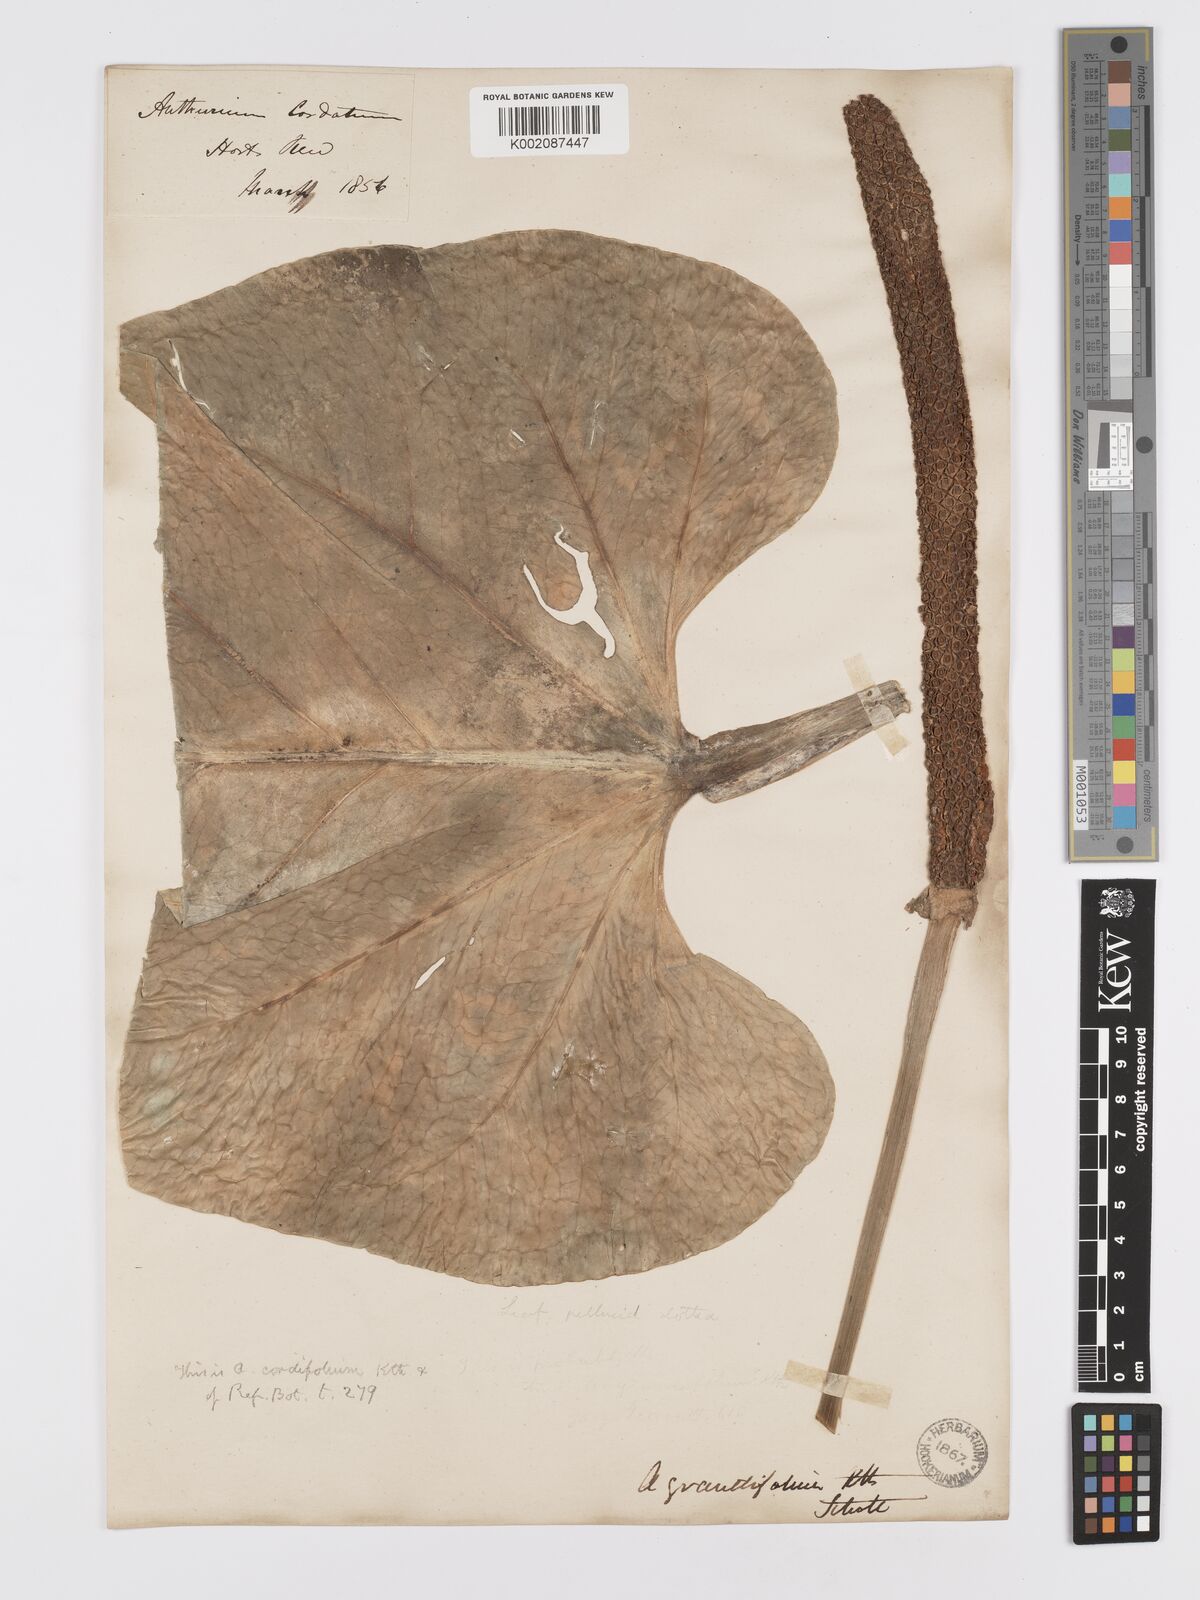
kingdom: Plantae
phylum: Tracheophyta
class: Liliopsida
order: Alismatales
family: Araceae
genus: Anthurium
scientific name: Anthurium
